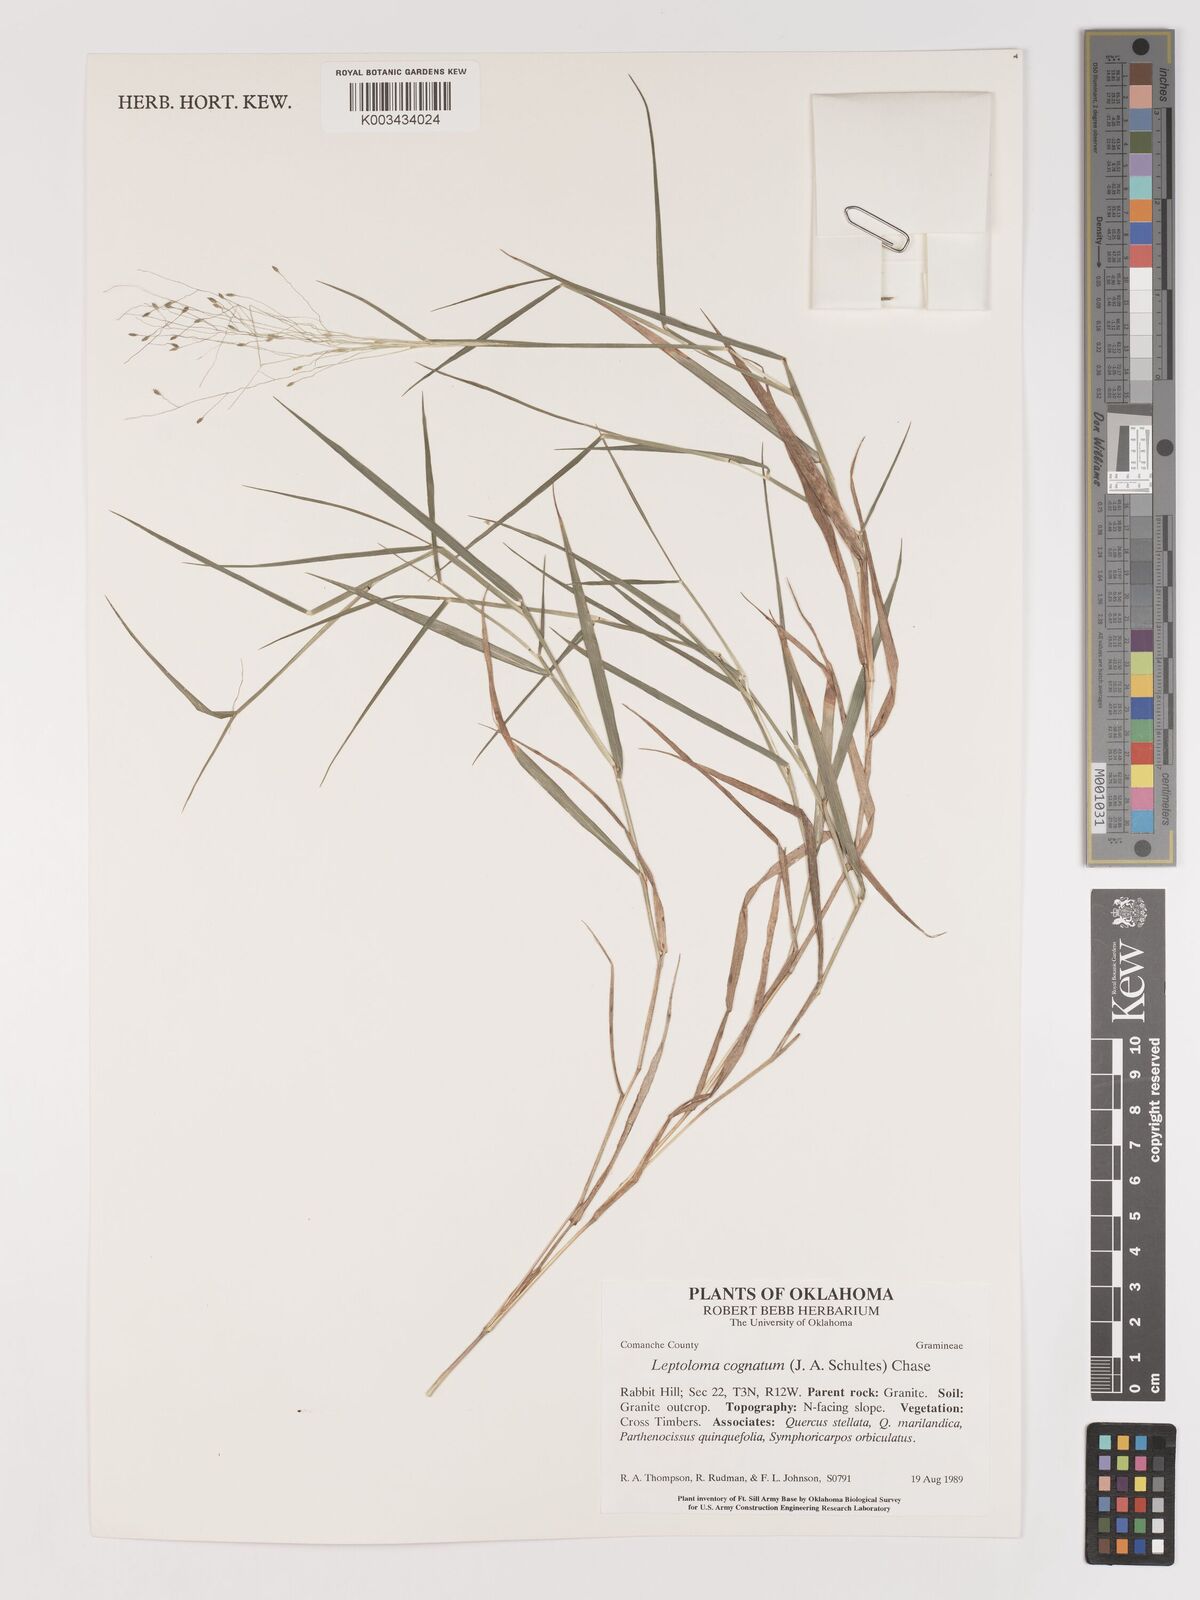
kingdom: Plantae
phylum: Tracheophyta
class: Liliopsida
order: Poales
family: Poaceae
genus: Digitaria
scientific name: Digitaria cognata
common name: Fall witchgrass
